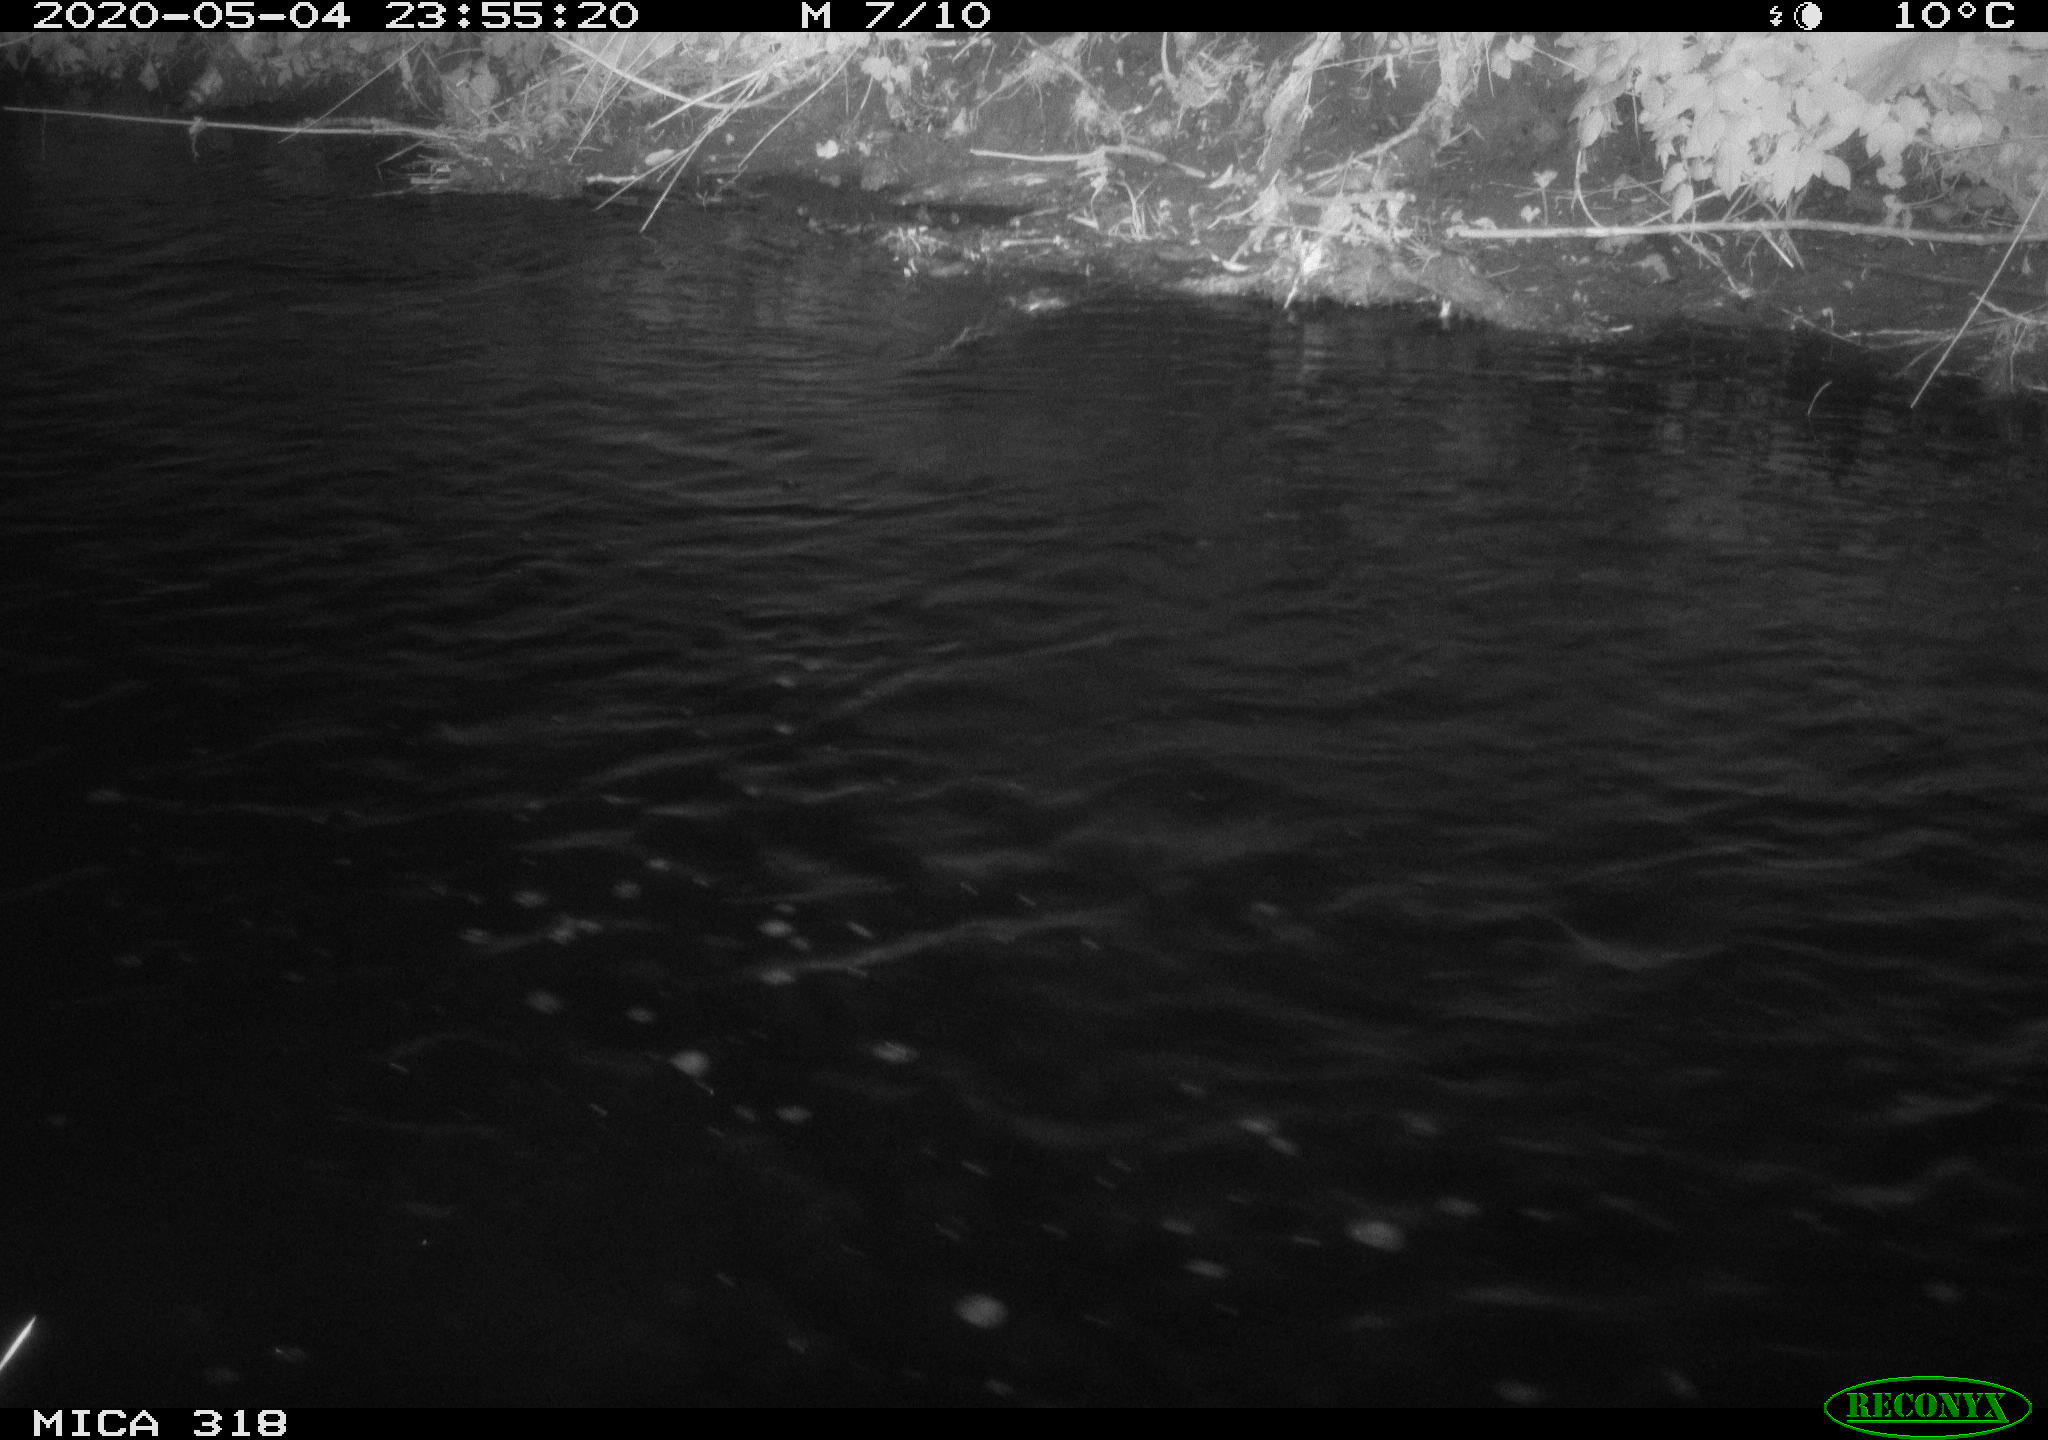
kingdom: Animalia
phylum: Chordata
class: Aves
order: Pelecaniformes
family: Ardeidae
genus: Ardea
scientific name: Ardea cinerea
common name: Grey heron
